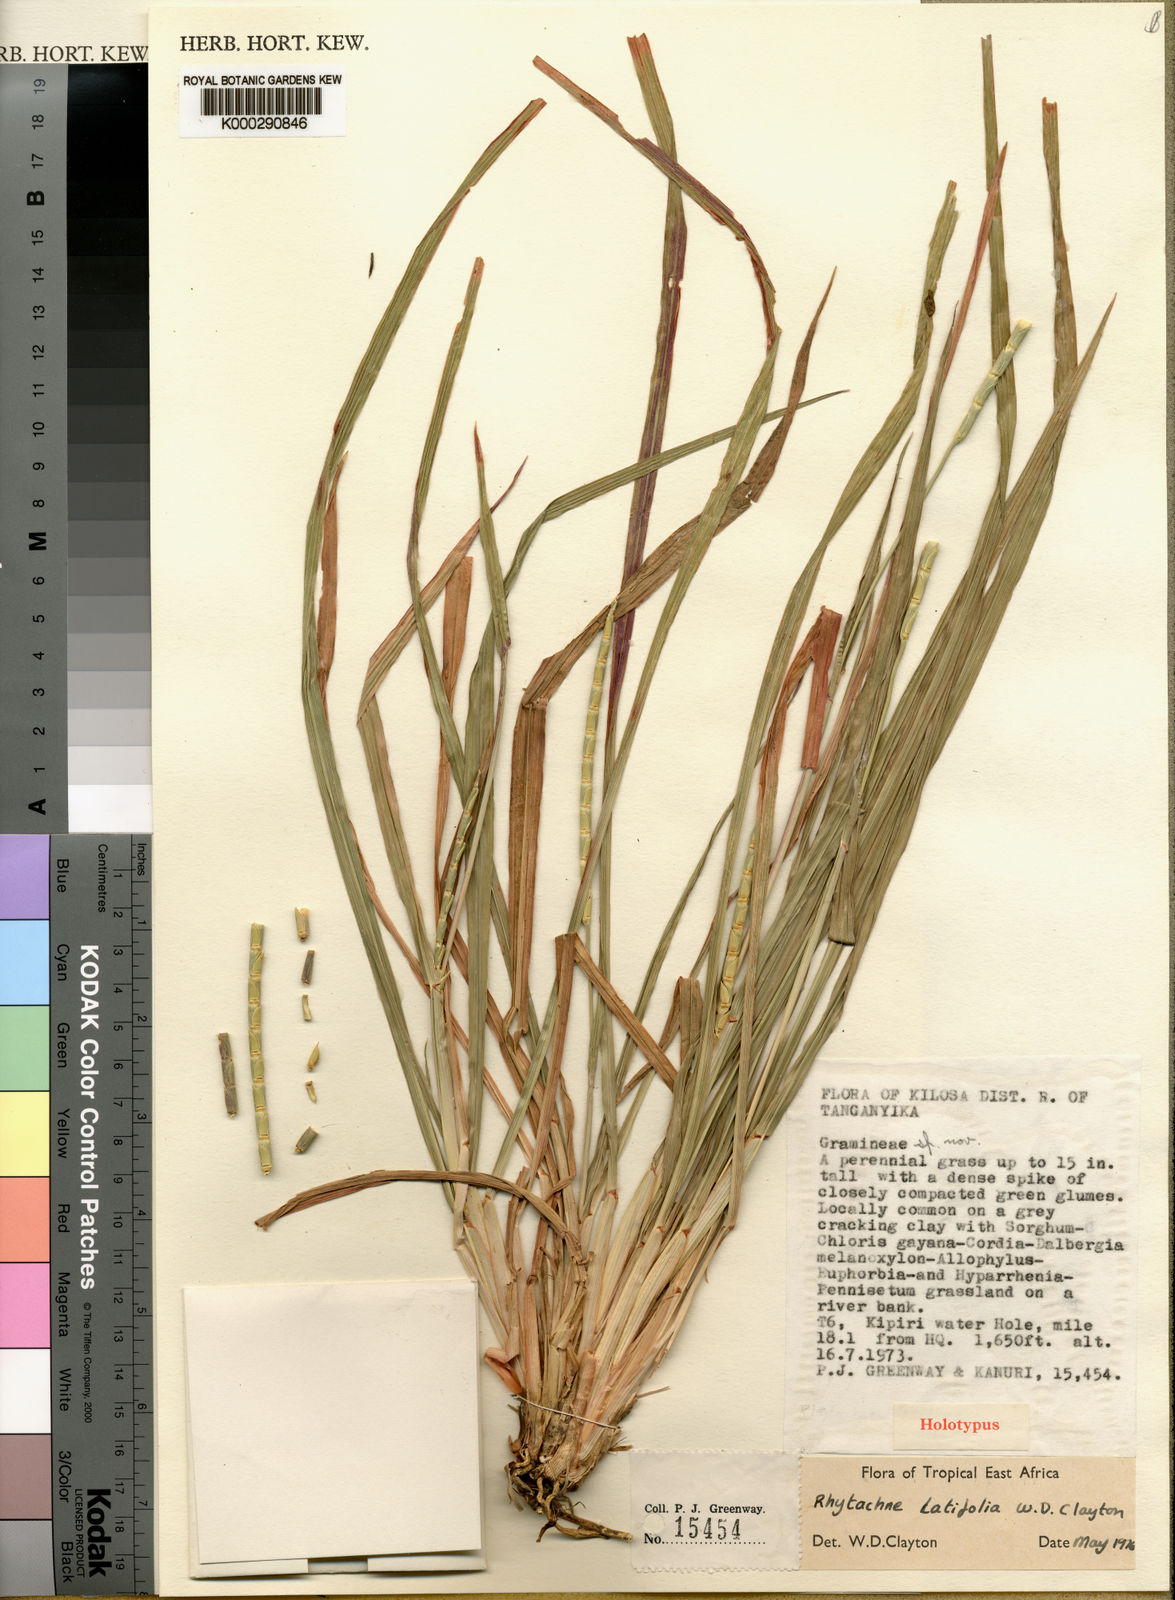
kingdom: Plantae
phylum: Tracheophyta
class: Liliopsida
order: Poales
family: Poaceae
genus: Rhytachne
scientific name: Rhytachne latifolia
